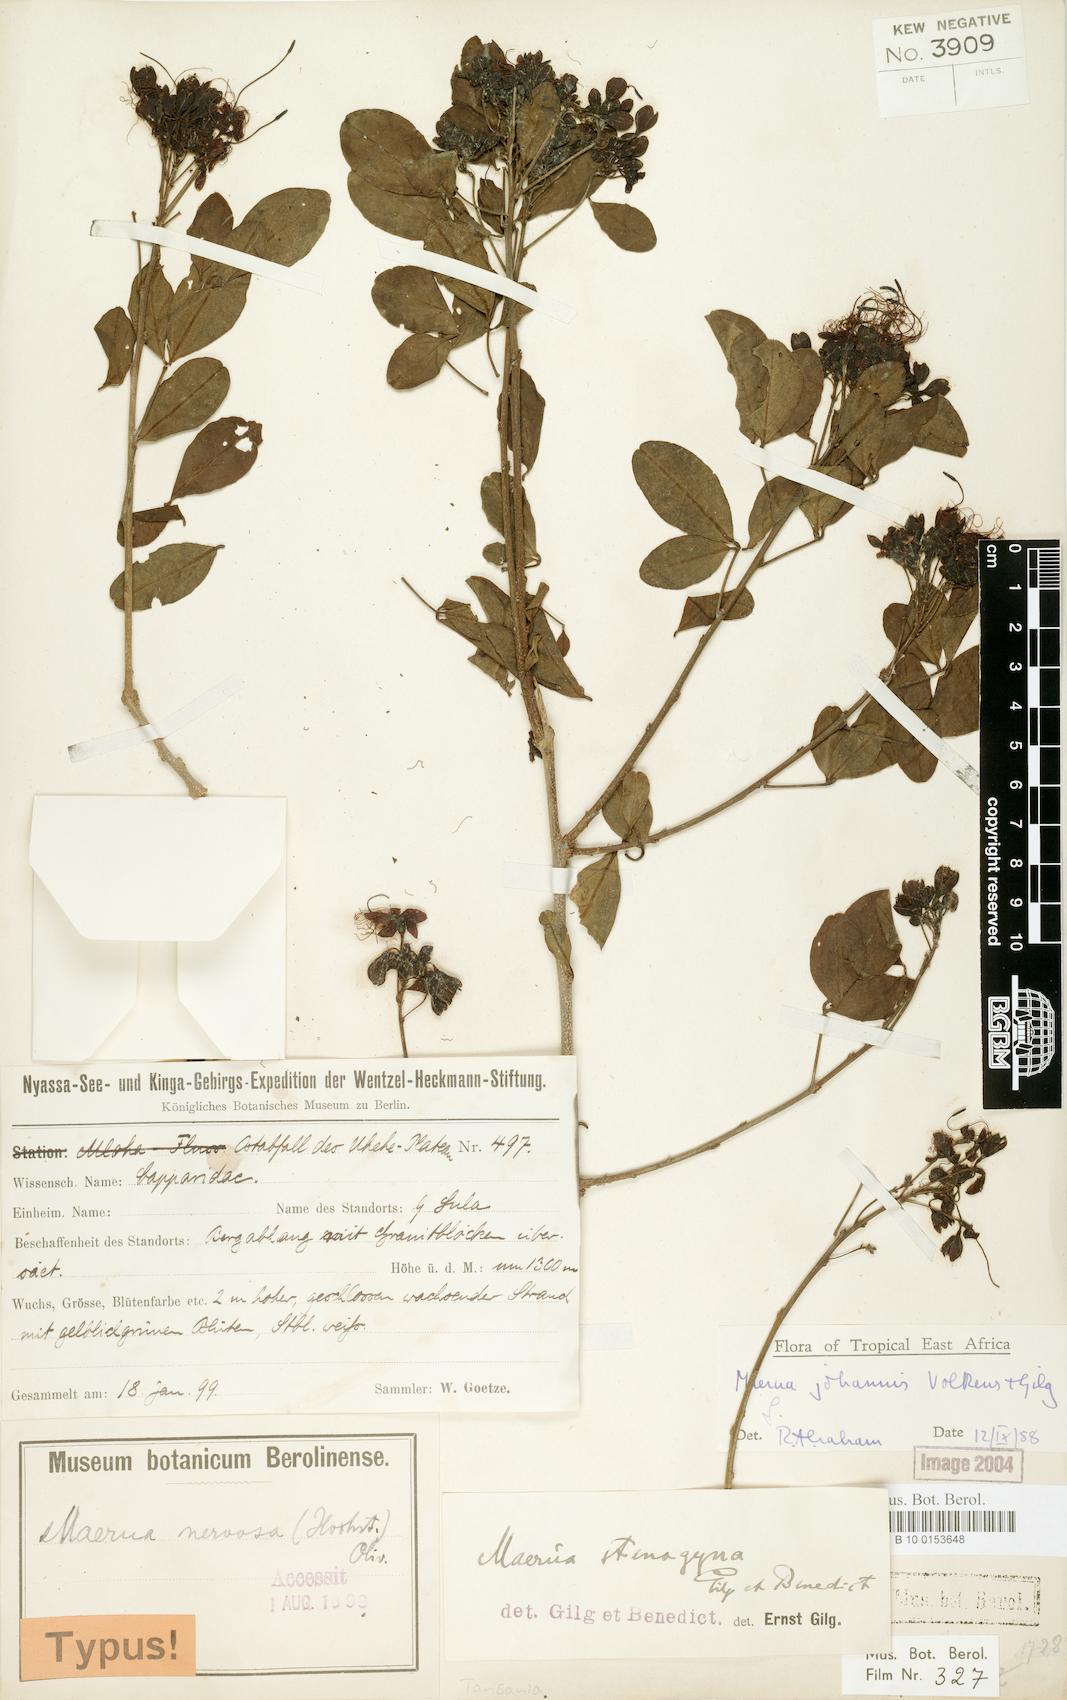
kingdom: Plantae
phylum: Tracheophyta
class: Magnoliopsida
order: Brassicales
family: Capparaceae
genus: Maerua
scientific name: Maerua triphylla
